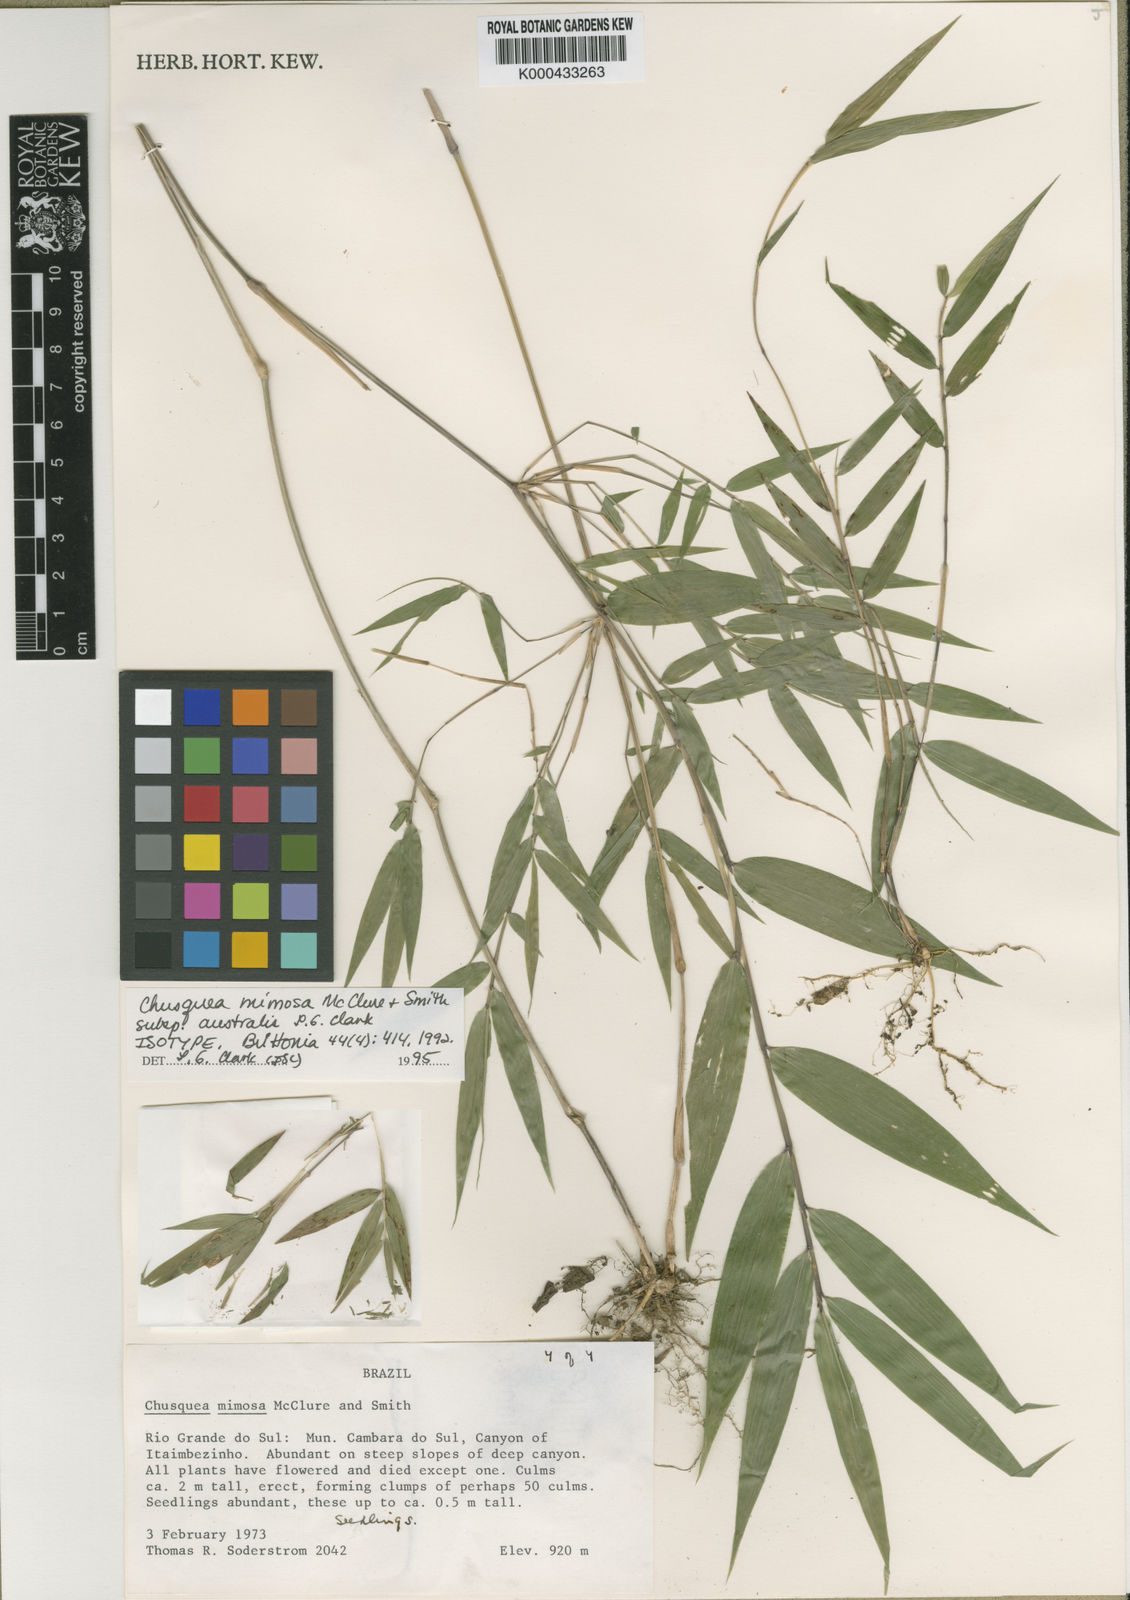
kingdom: Plantae
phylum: Tracheophyta
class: Liliopsida
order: Poales
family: Poaceae
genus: Chusquea
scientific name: Chusquea mimosa
